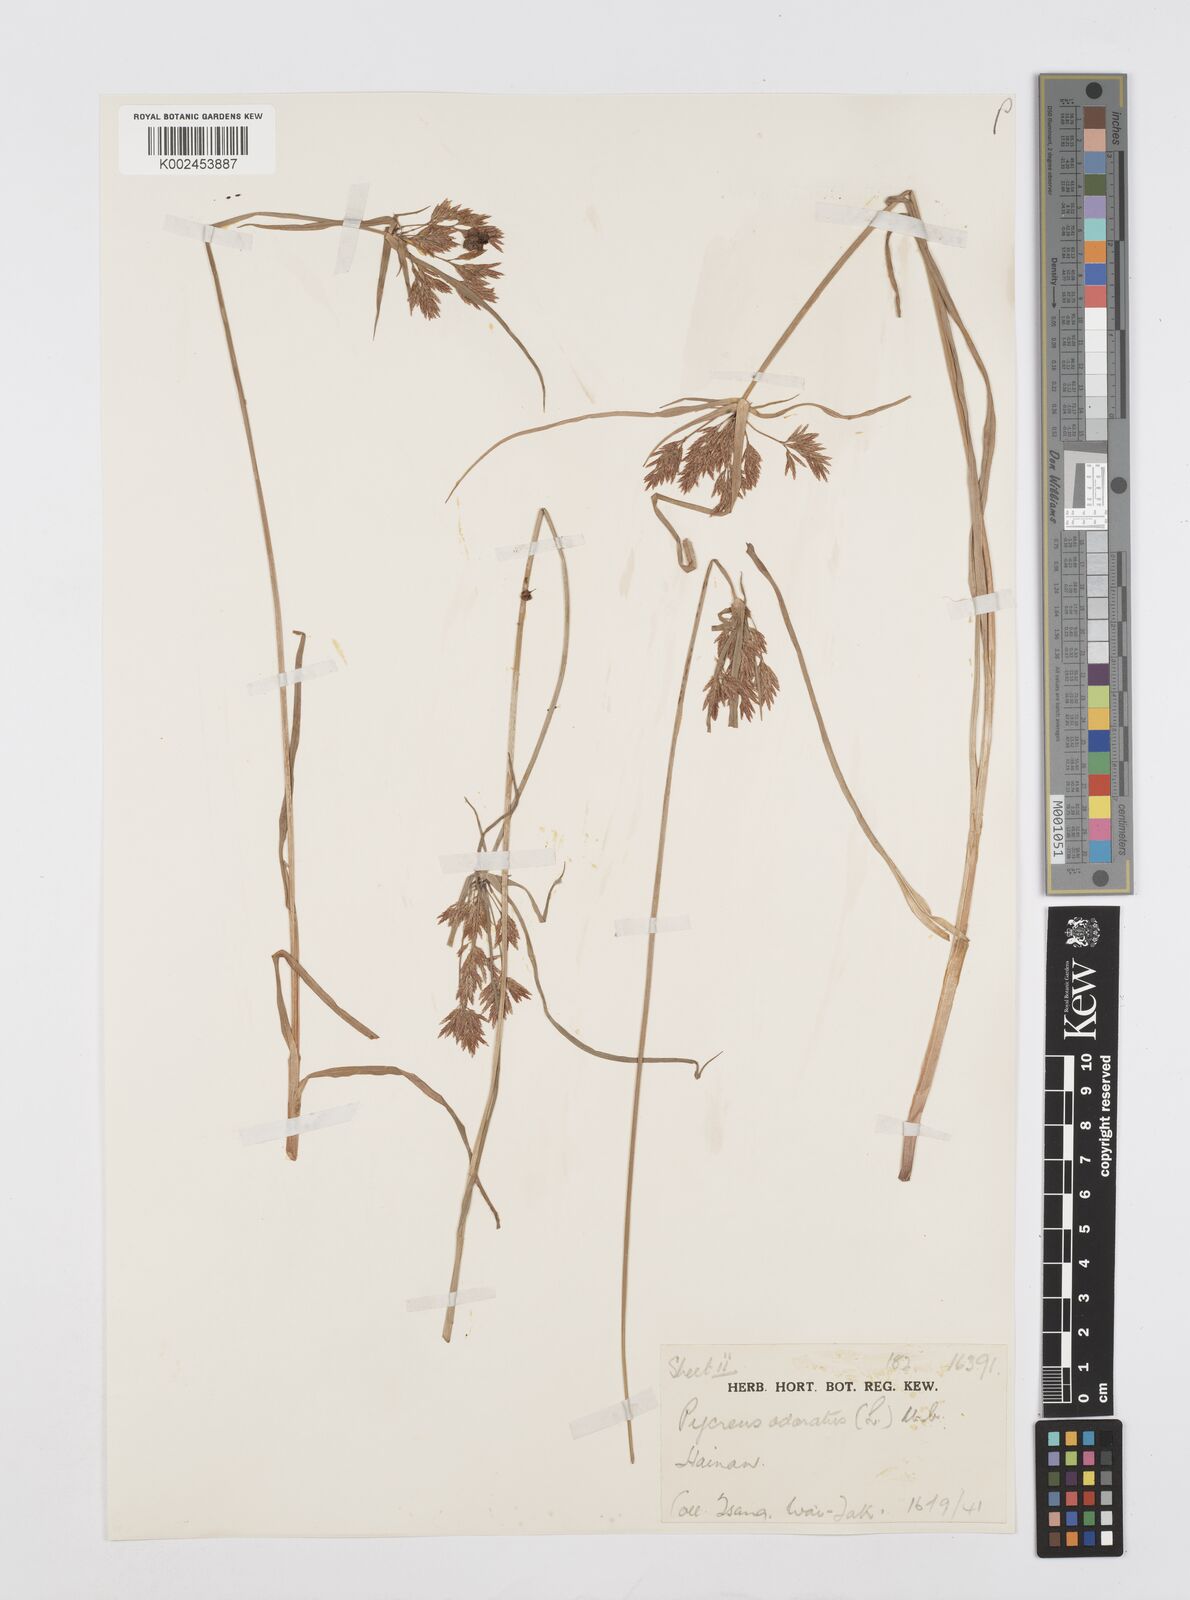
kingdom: Plantae
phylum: Tracheophyta
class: Liliopsida
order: Poales
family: Cyperaceae
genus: Cyperus
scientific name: Cyperus polystachyos
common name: Bunchy flat sedge
